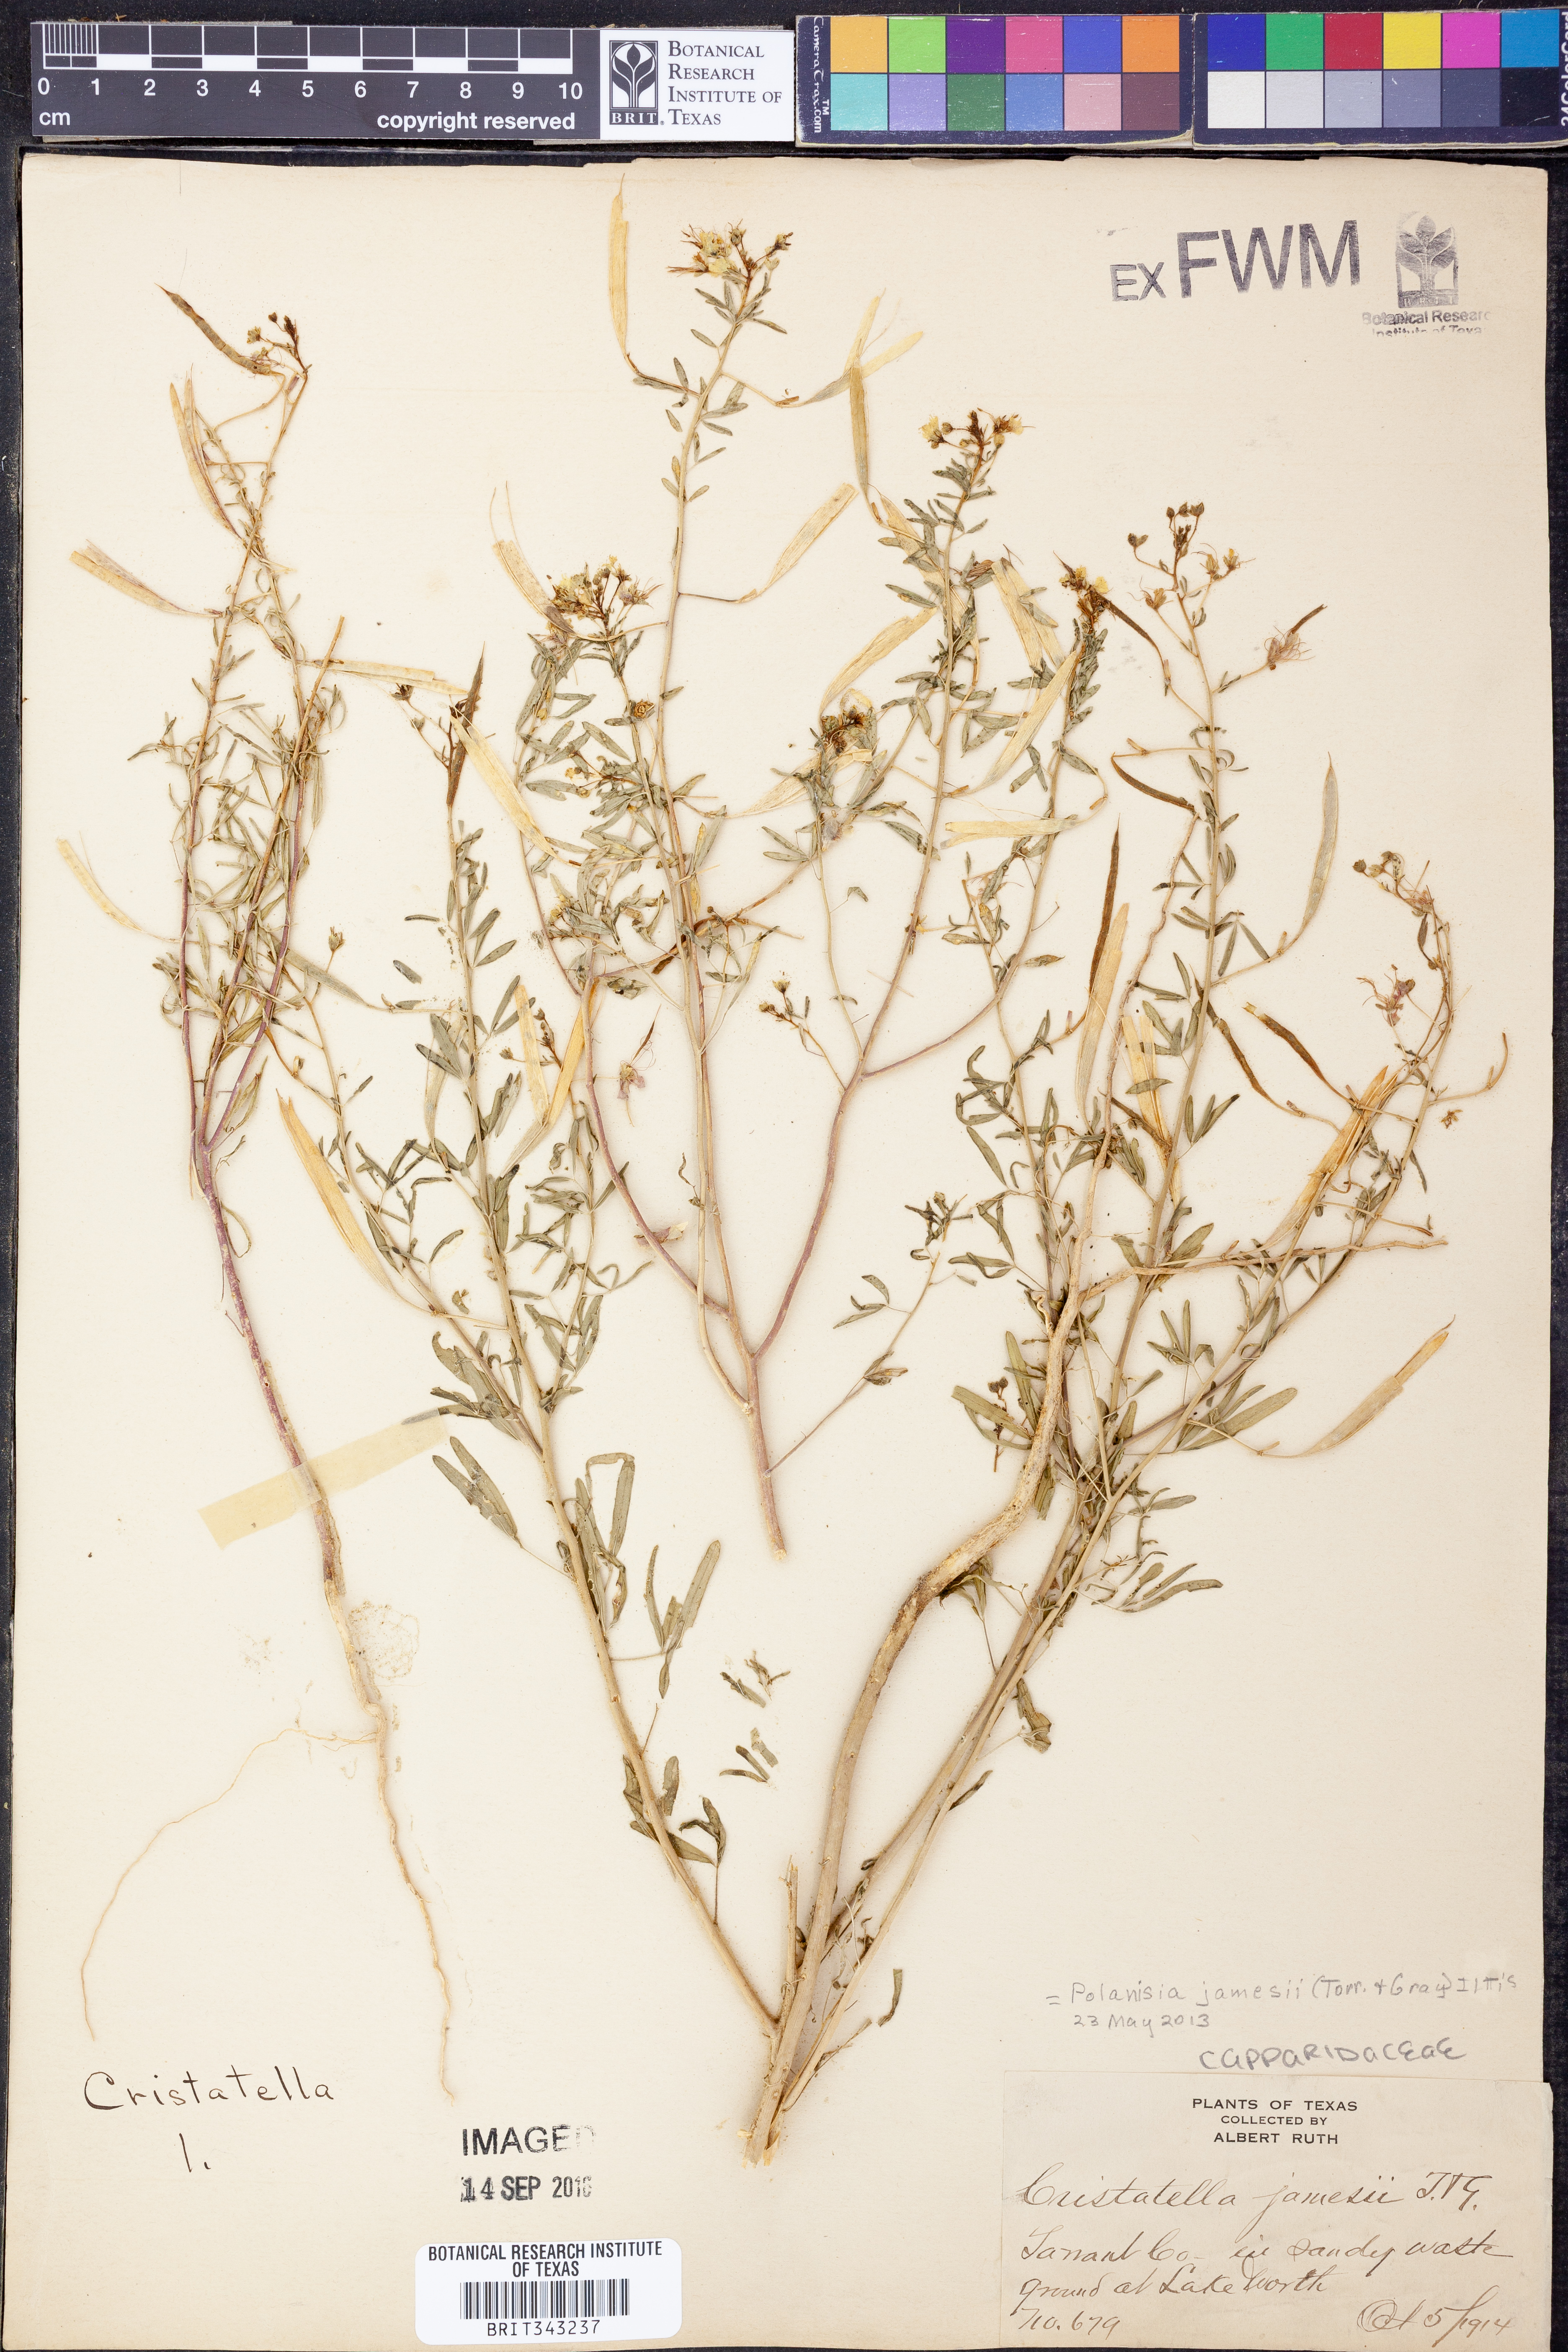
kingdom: Plantae
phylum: Tracheophyta
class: Magnoliopsida
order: Brassicales
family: Cleomaceae
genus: Polanisia
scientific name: Polanisia jamesii
